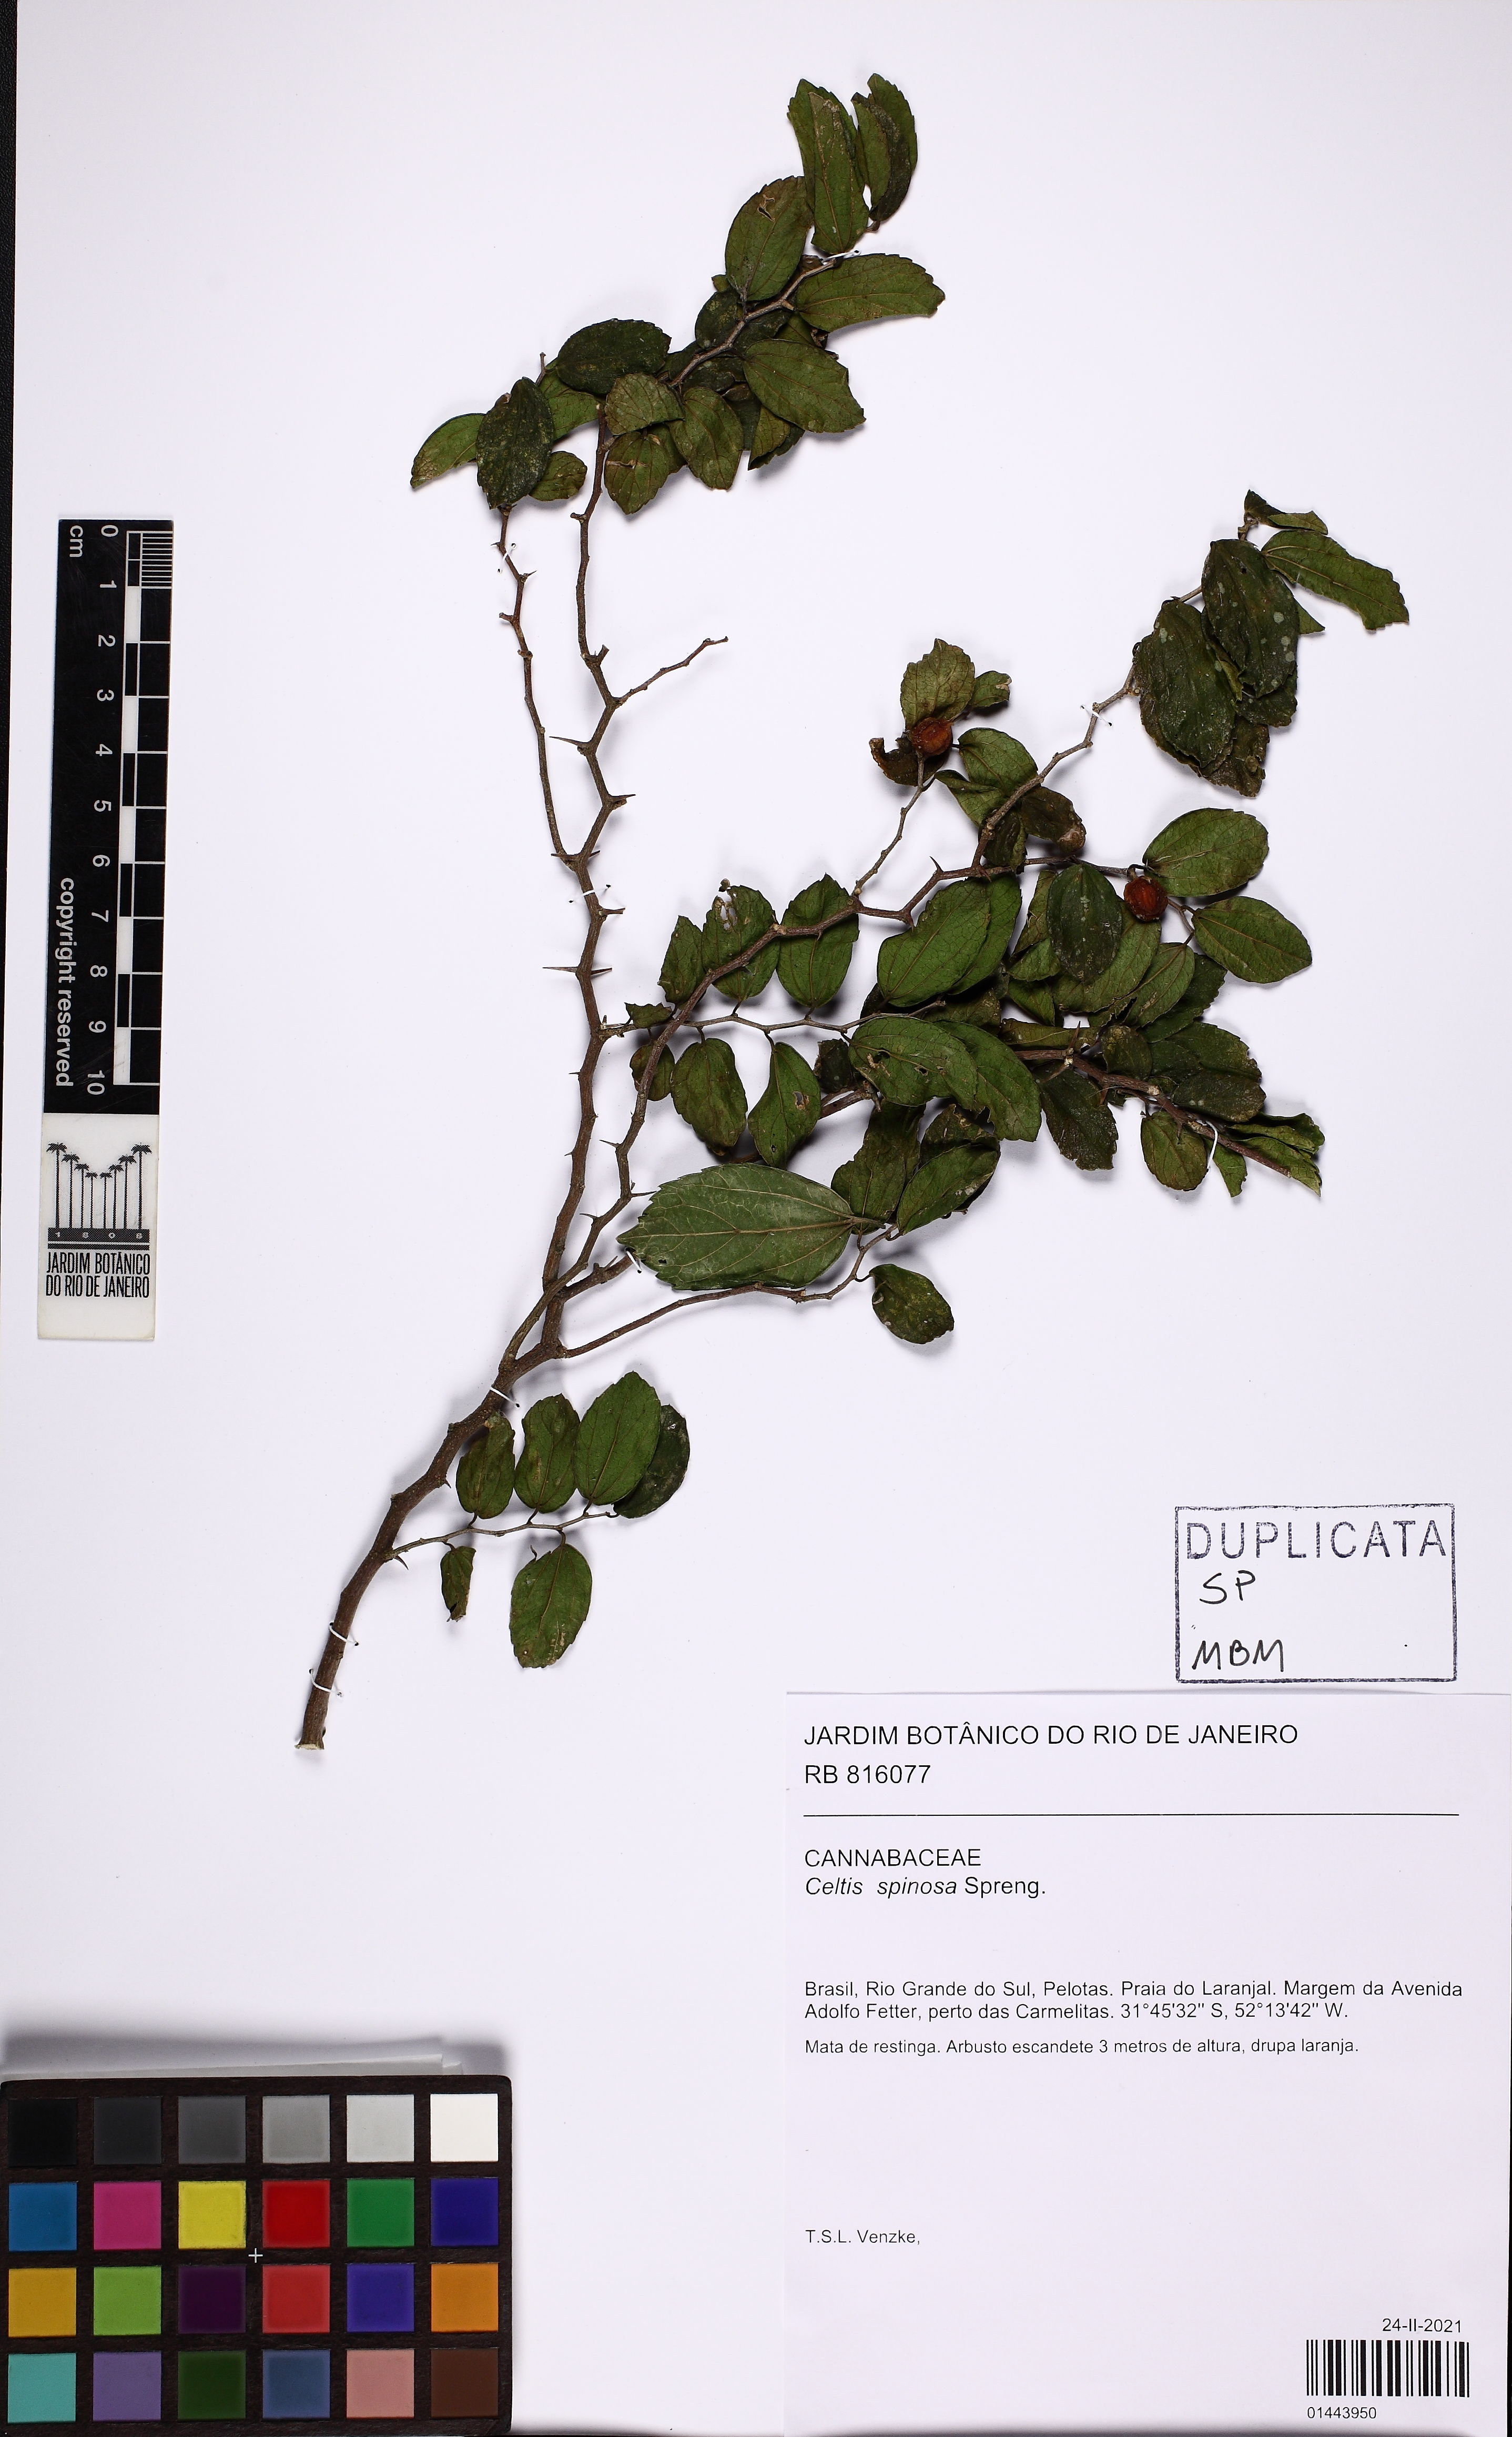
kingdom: Plantae
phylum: Tracheophyta
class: Magnoliopsida
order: Rosales
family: Cannabaceae
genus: Celtis
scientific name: Celtis spinosa
